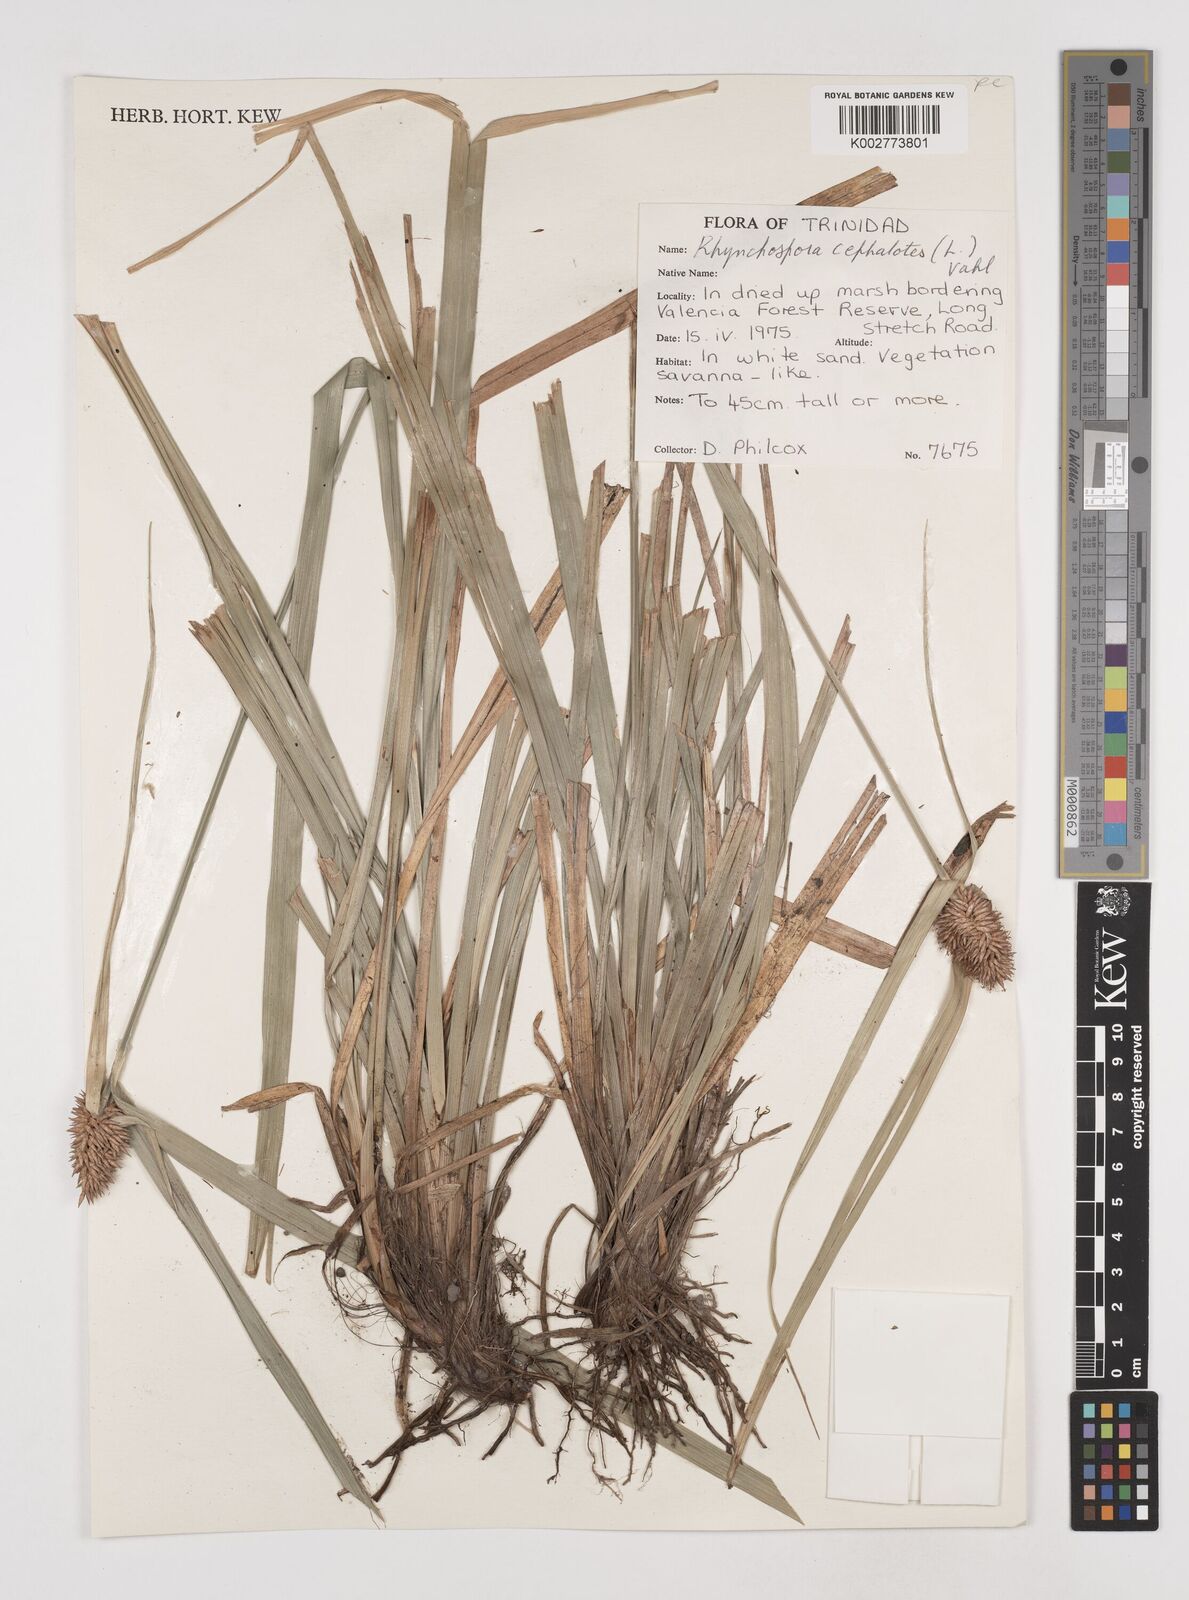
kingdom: Plantae
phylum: Tracheophyta
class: Liliopsida
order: Poales
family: Cyperaceae
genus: Rhynchospora
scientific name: Rhynchospora cephalotes
